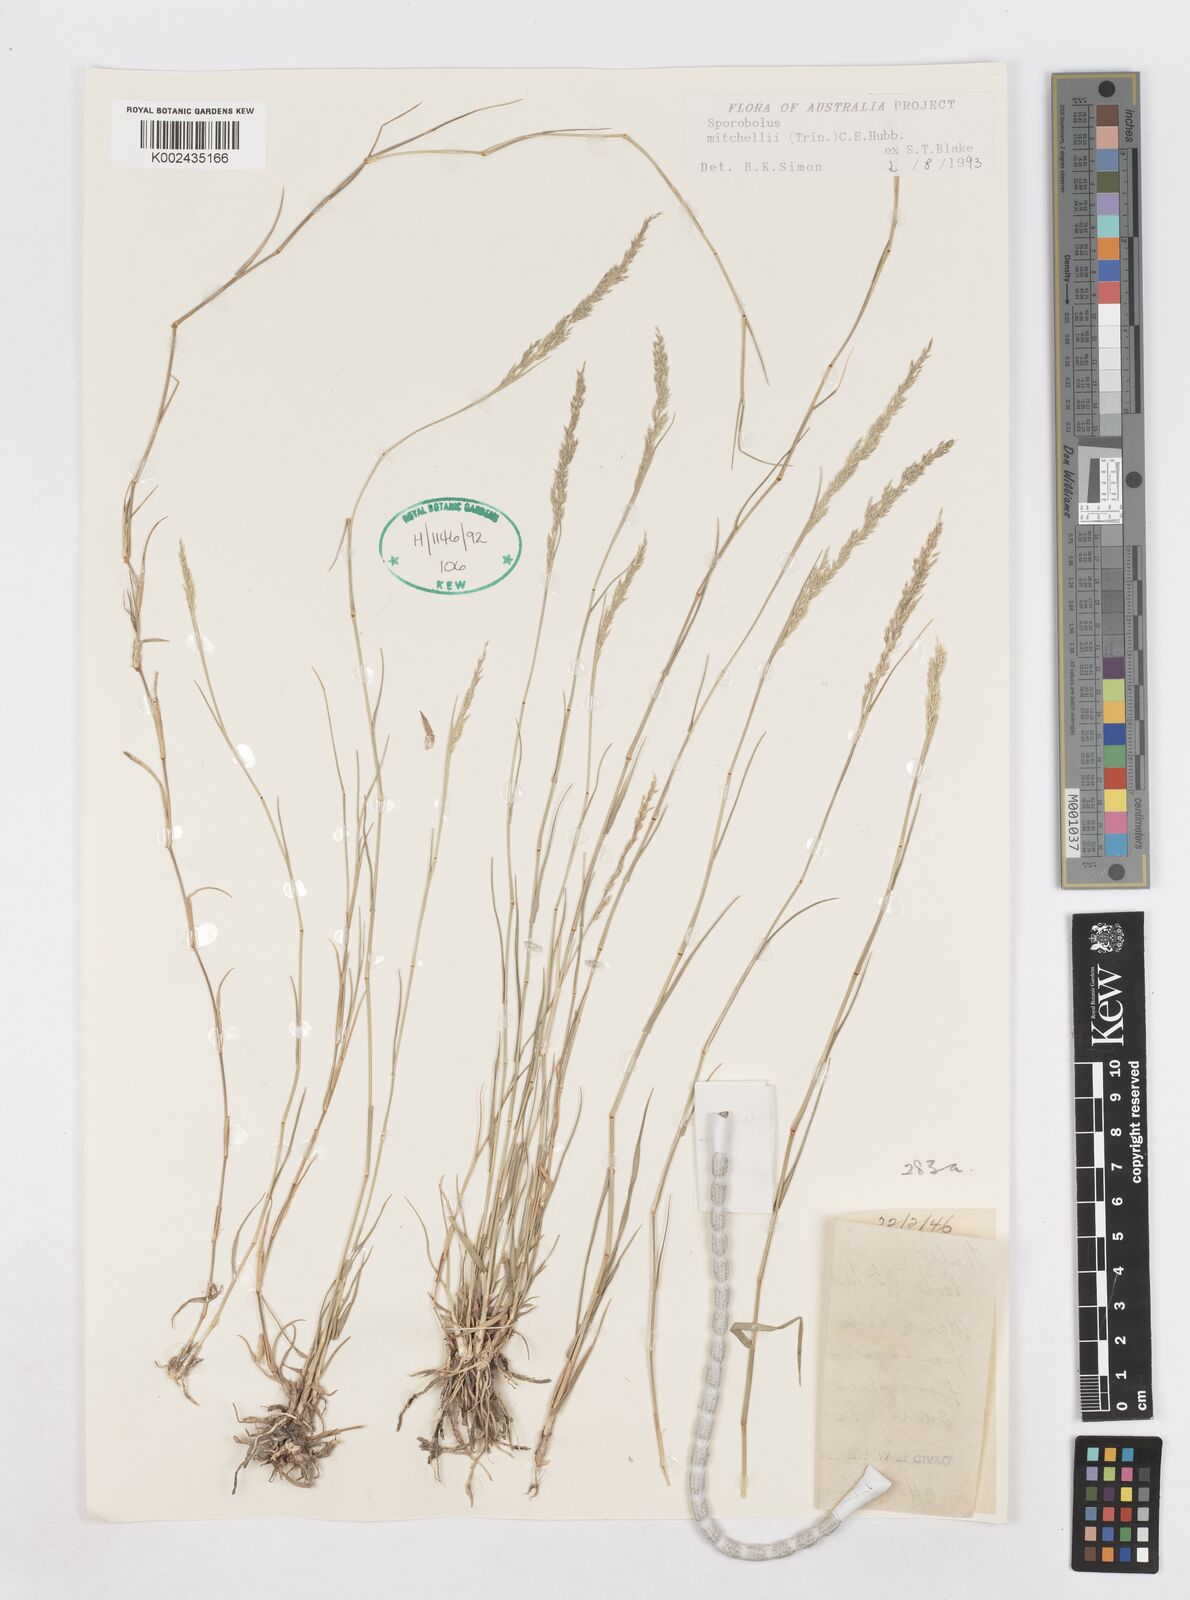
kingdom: Plantae
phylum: Tracheophyta
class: Liliopsida
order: Poales
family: Poaceae
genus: Sporobolus
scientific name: Sporobolus mitchellii
